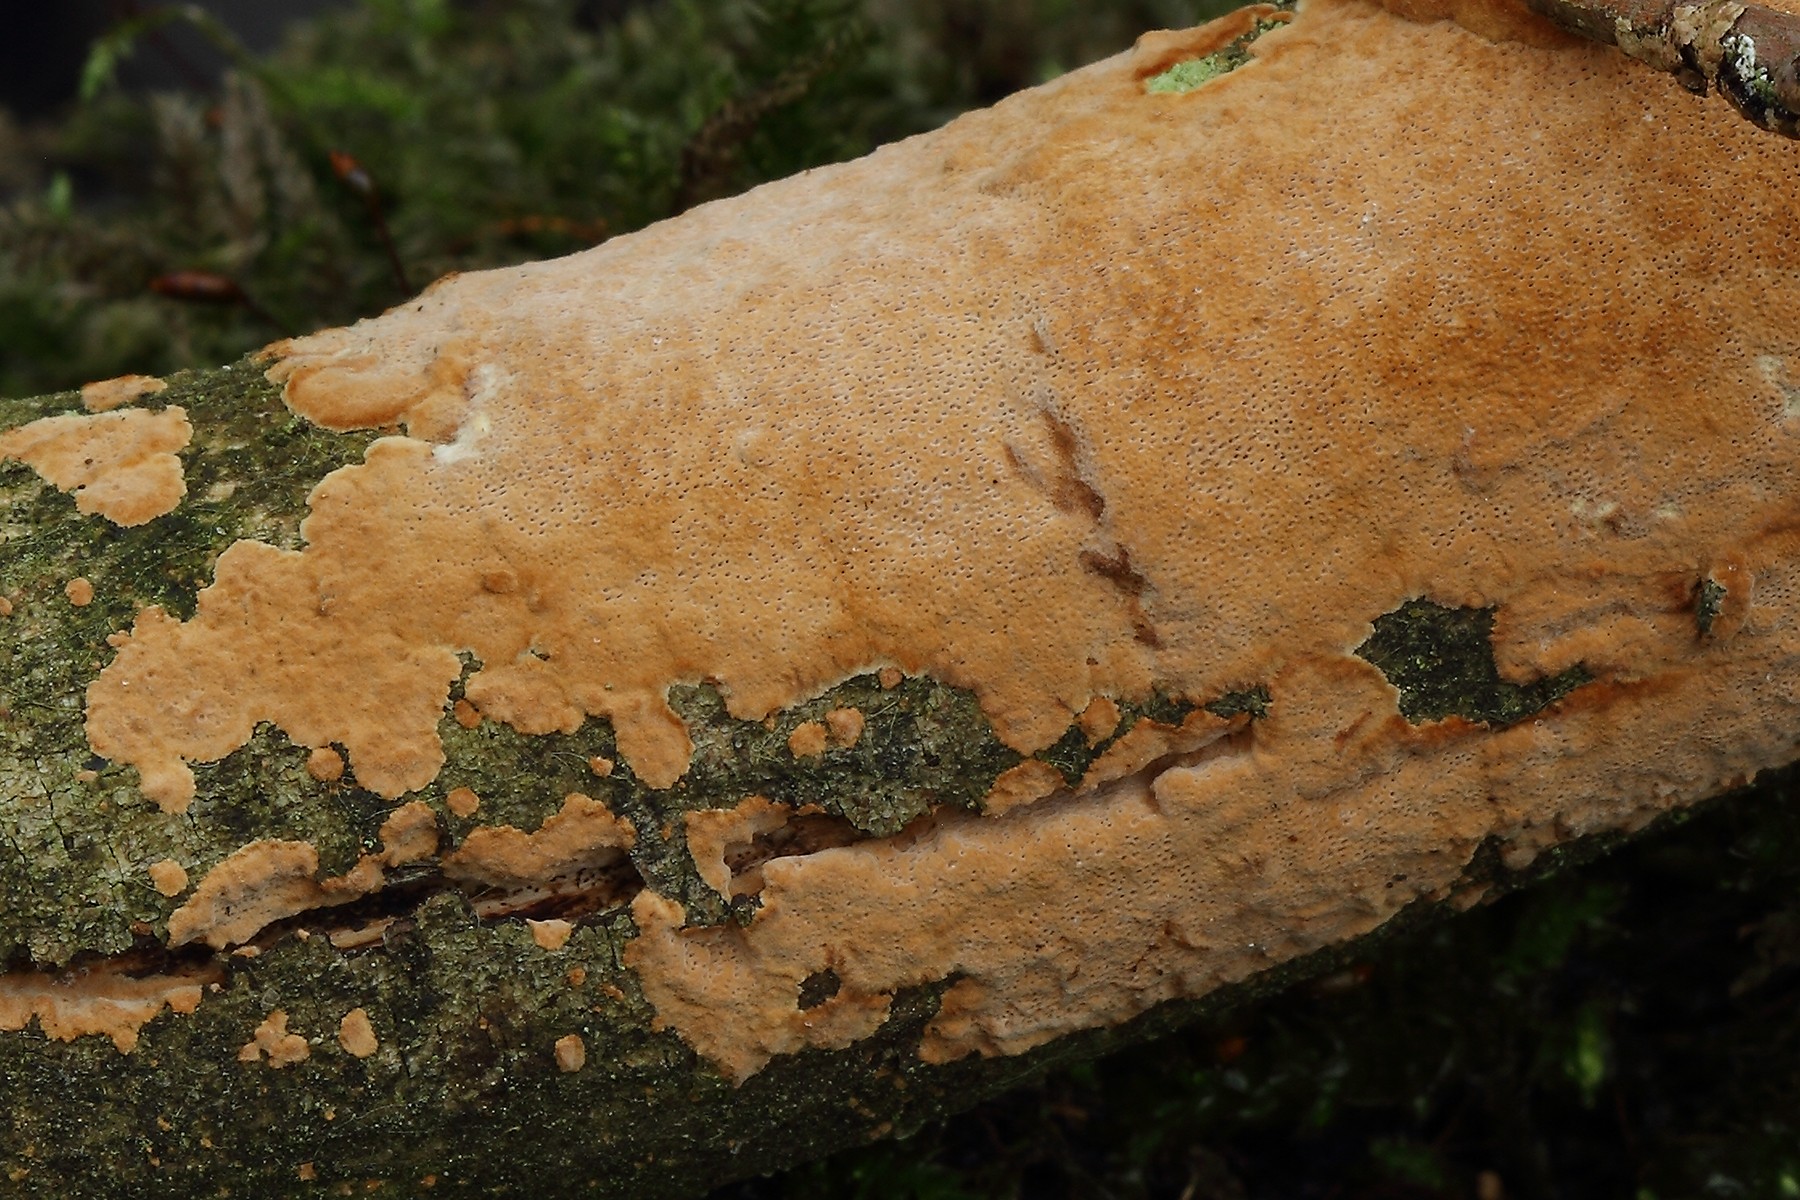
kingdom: Fungi
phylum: Basidiomycota
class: Agaricomycetes
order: Hymenochaetales
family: Hymenochaetaceae
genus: Fomitiporia
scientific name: Fomitiporia punctata
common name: pude-ildporesvamp
